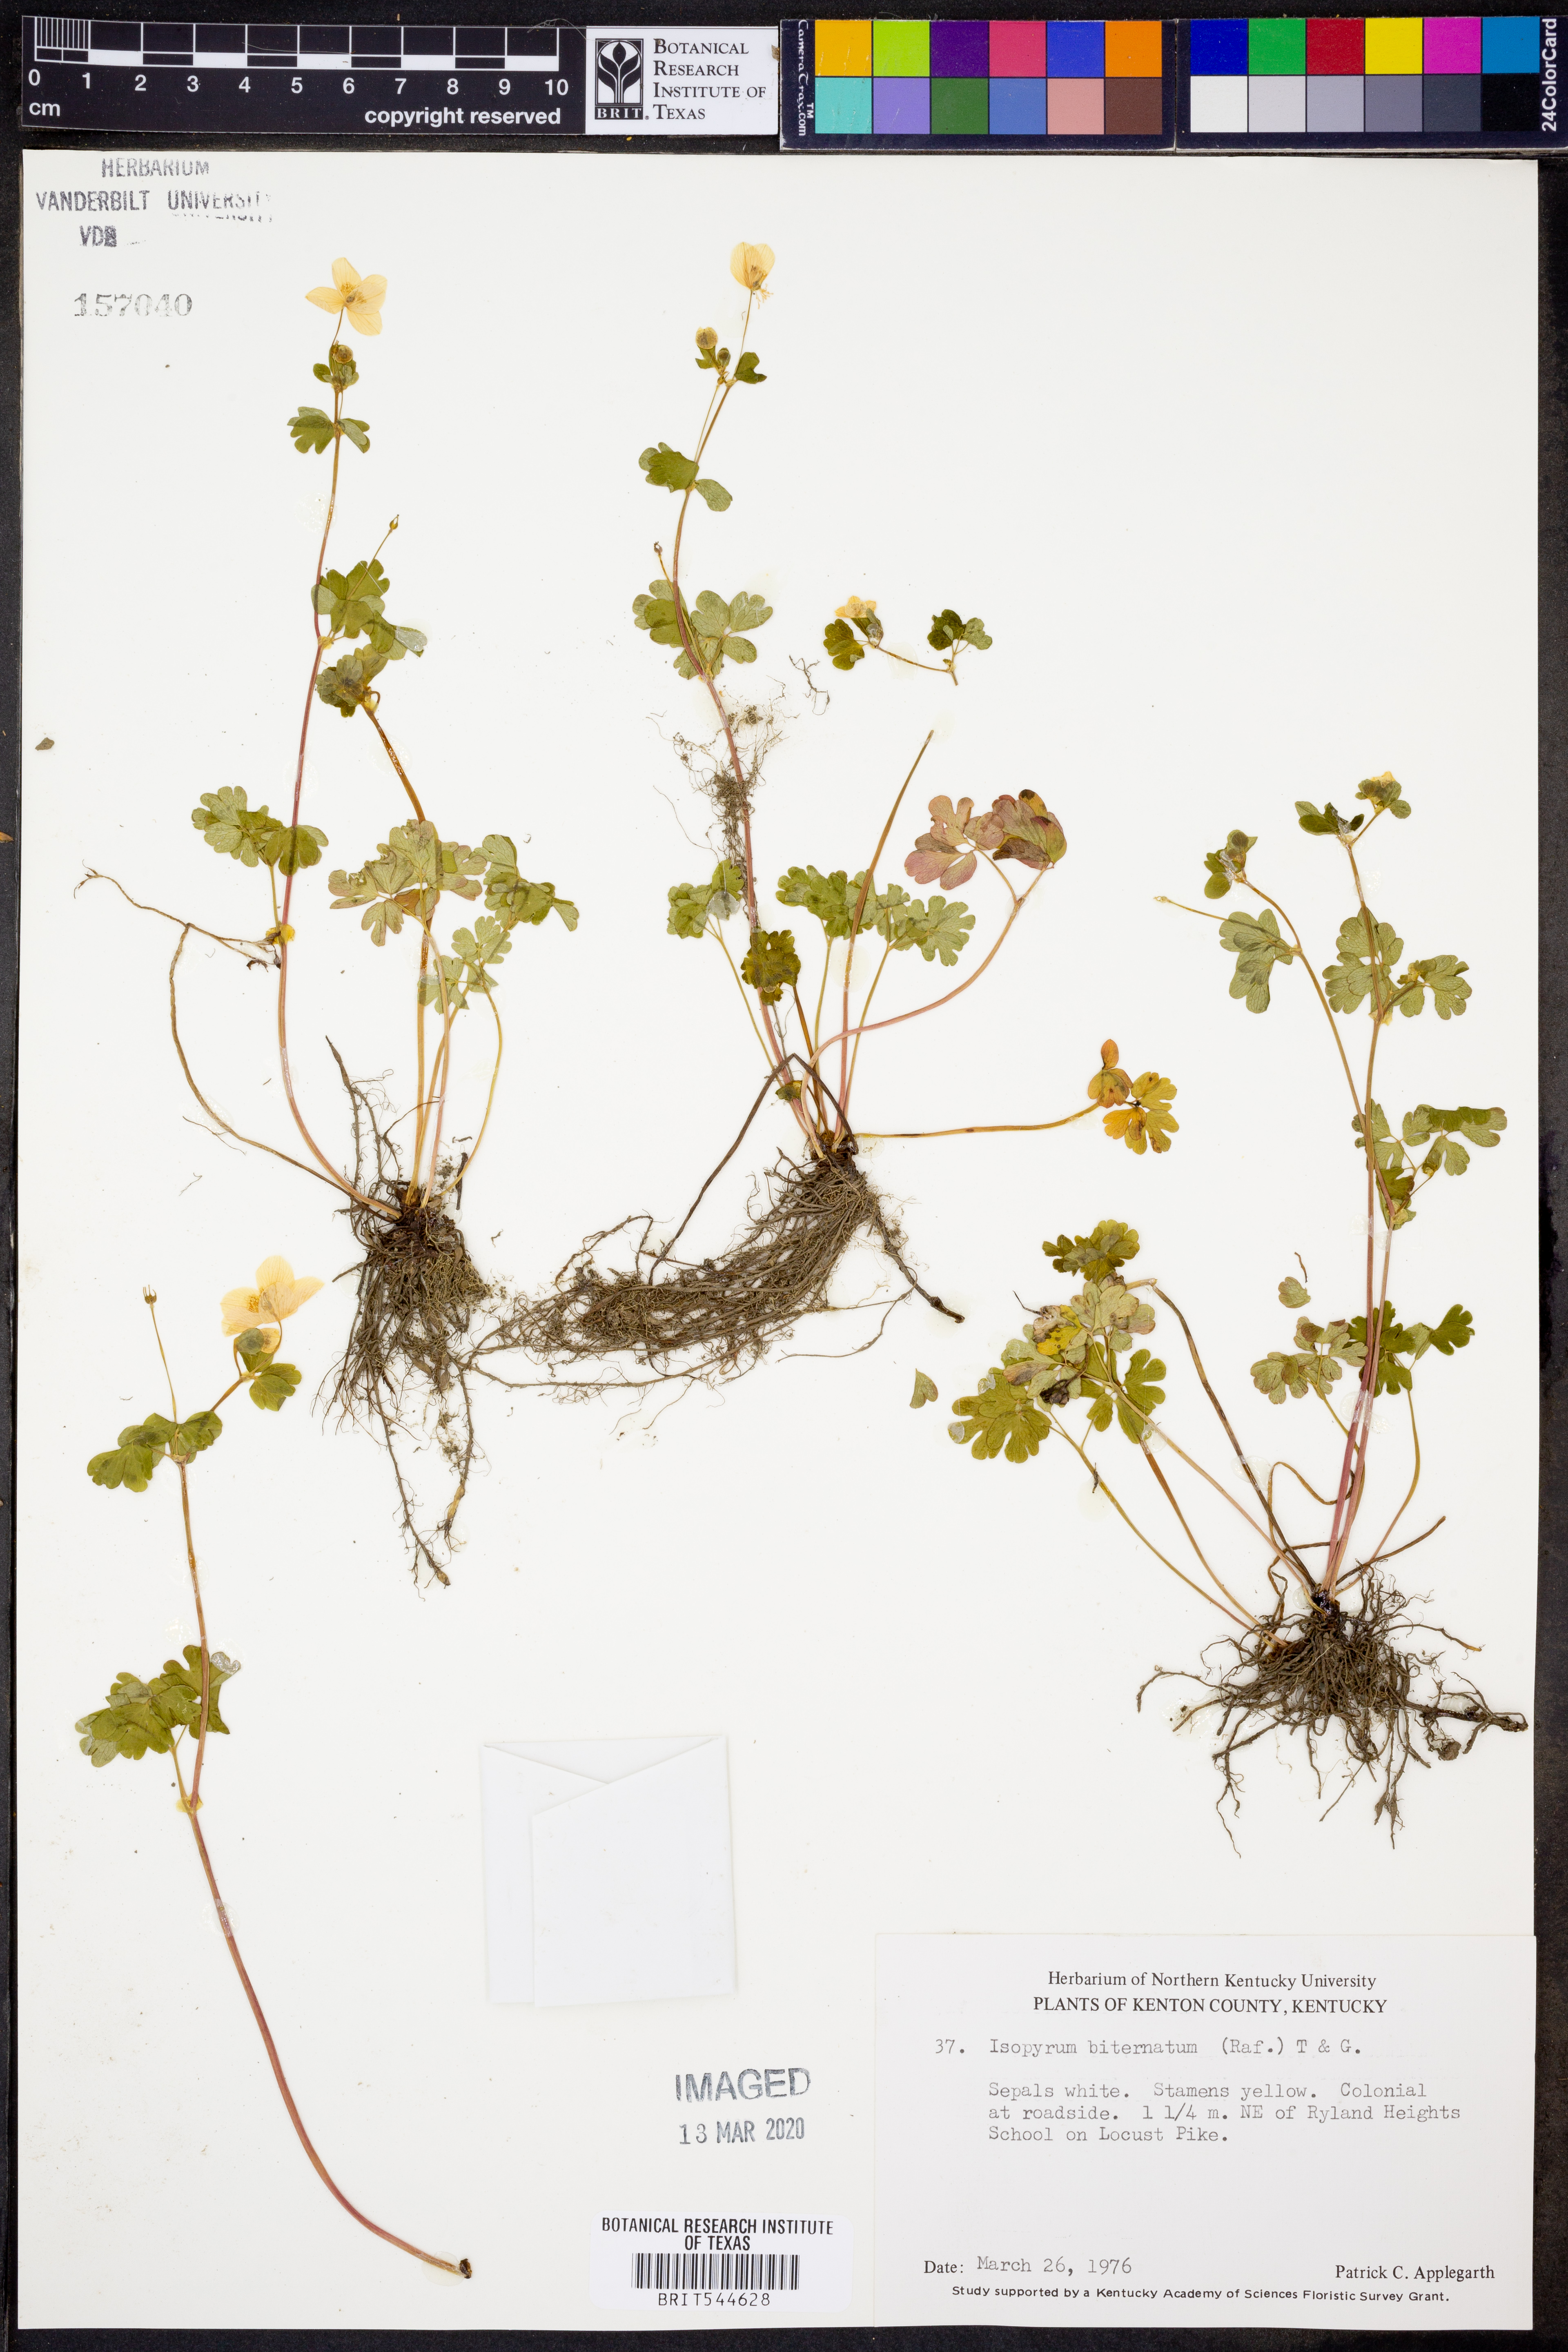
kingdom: Plantae
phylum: Tracheophyta
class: Magnoliopsida
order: Ranunculales
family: Ranunculaceae
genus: Enemion
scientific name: Enemion biternatum
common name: Eastern false rue-anemone
